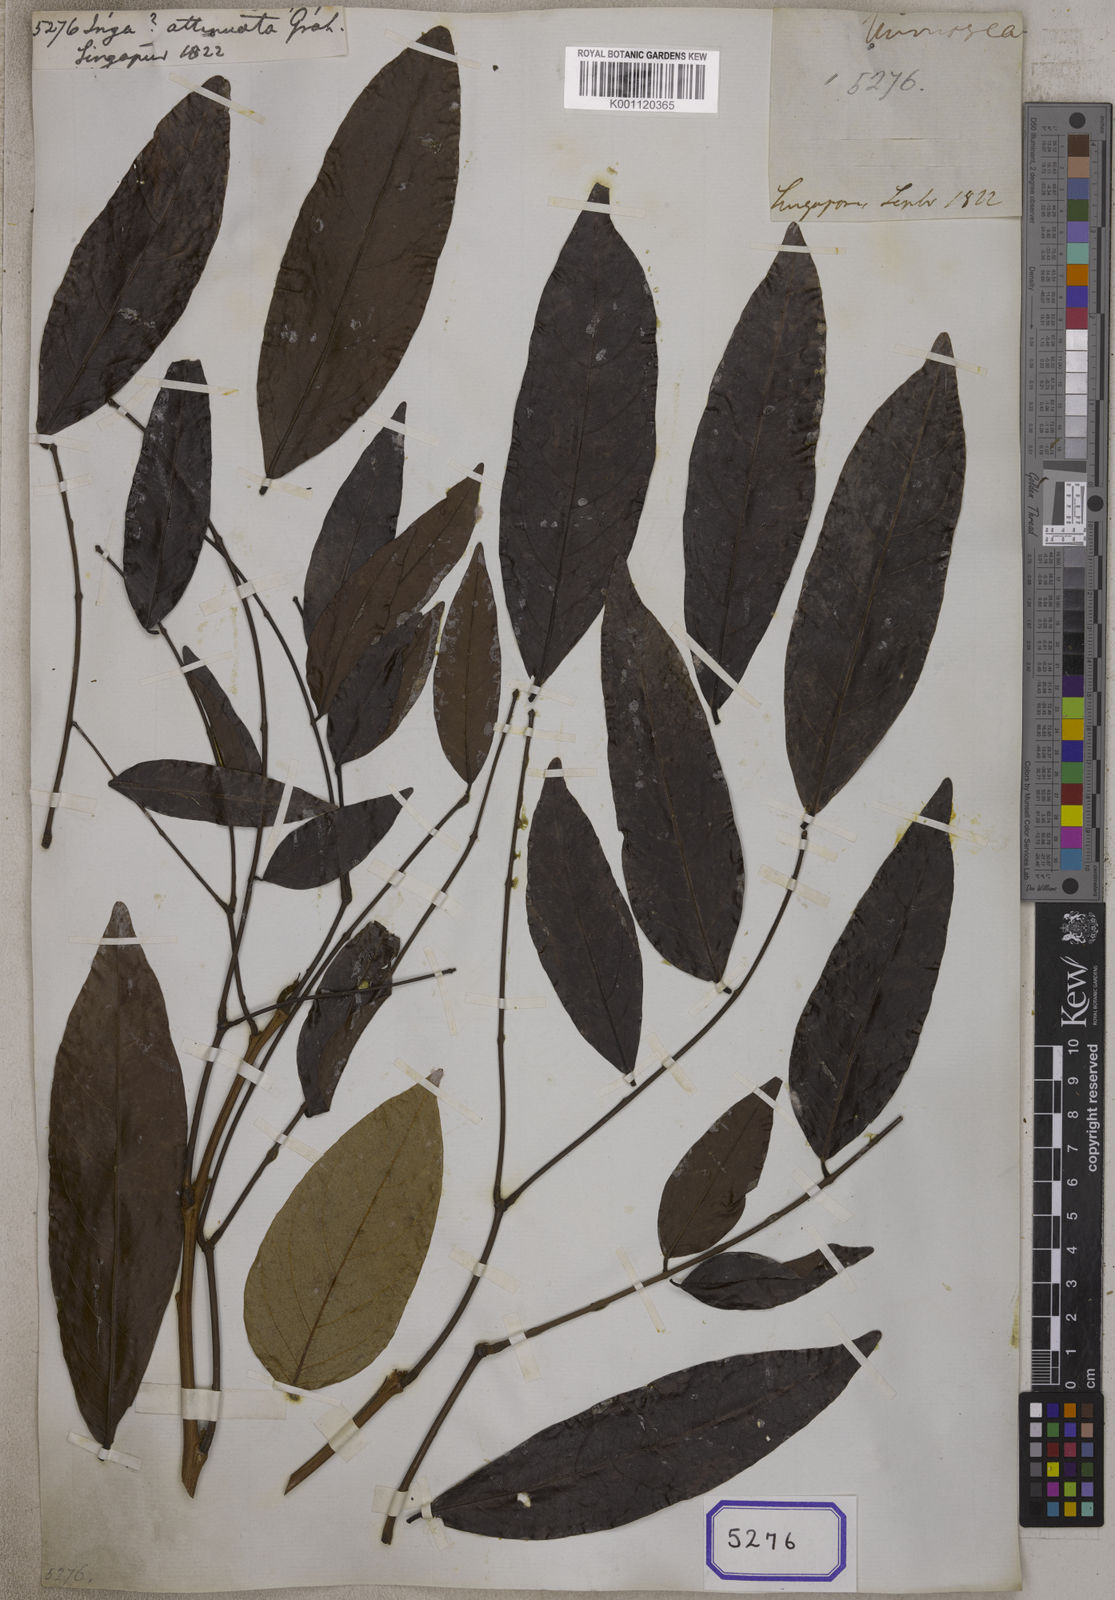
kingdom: Plantae
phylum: Tracheophyta
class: Magnoliopsida
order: Fabales
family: Fabaceae
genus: Archidendron
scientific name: Archidendron jiringa
